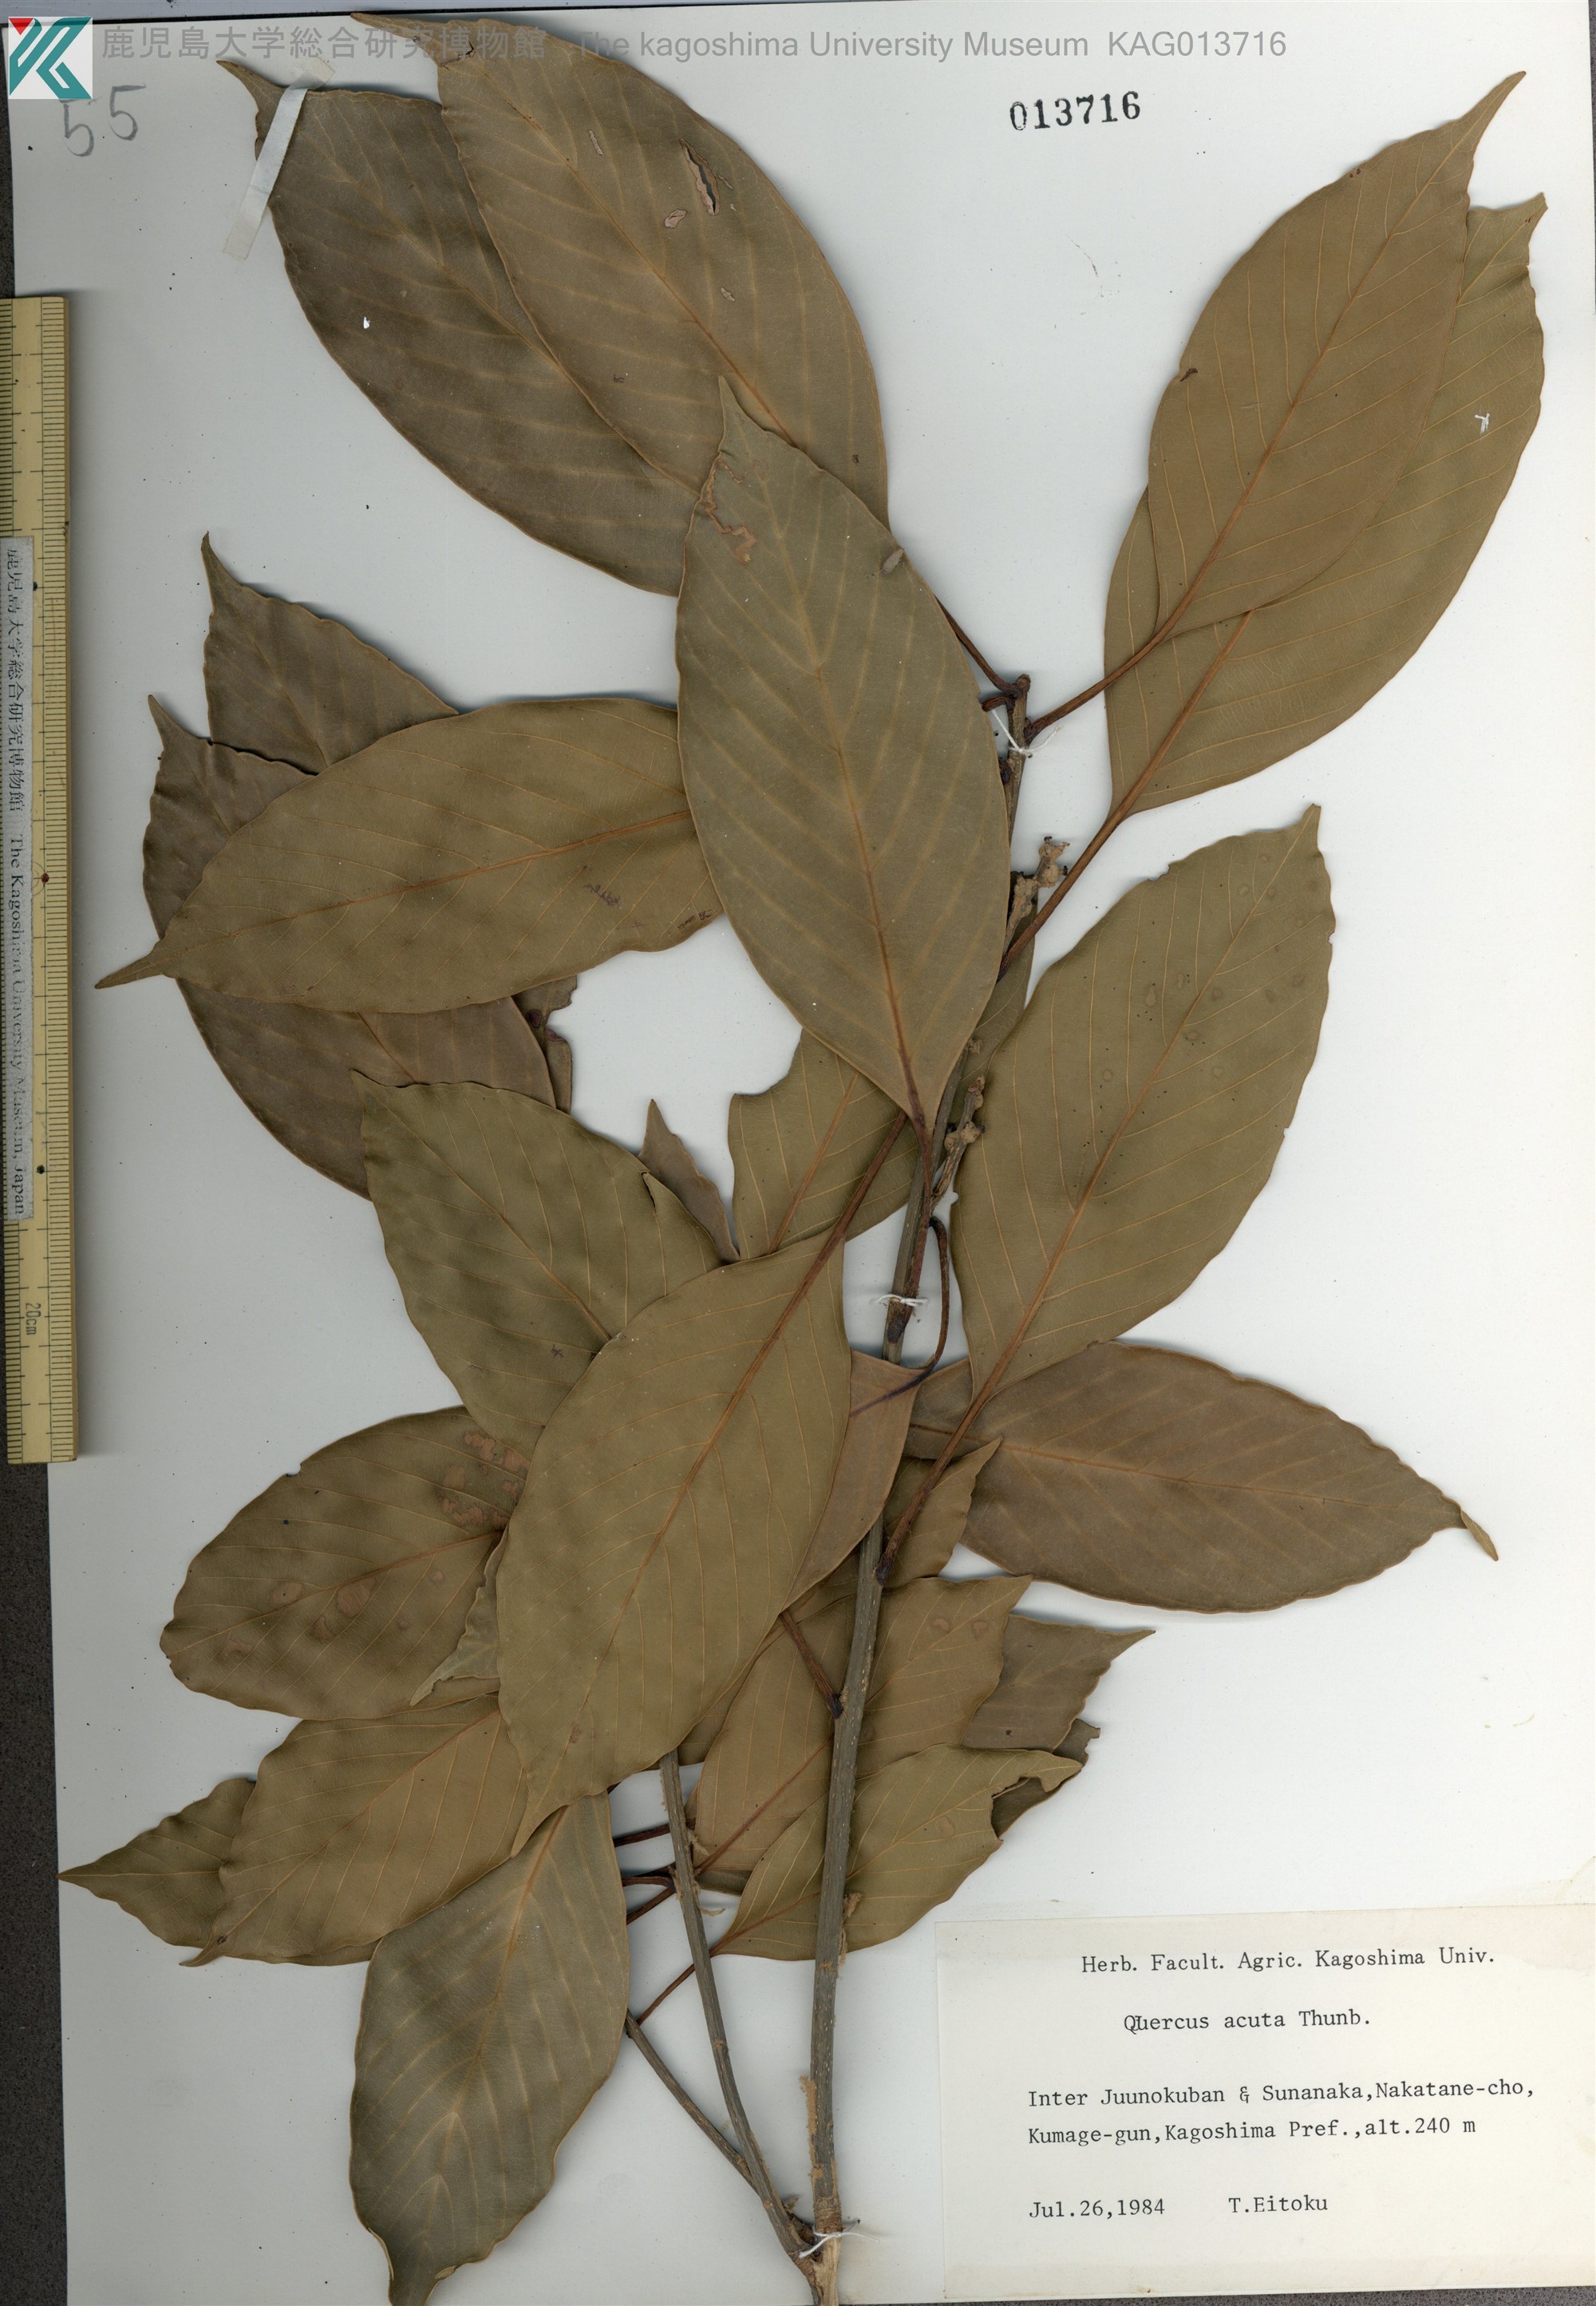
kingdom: Plantae
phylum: Tracheophyta
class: Magnoliopsida
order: Fagales
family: Fagaceae
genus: Quercus
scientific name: Quercus acuta
